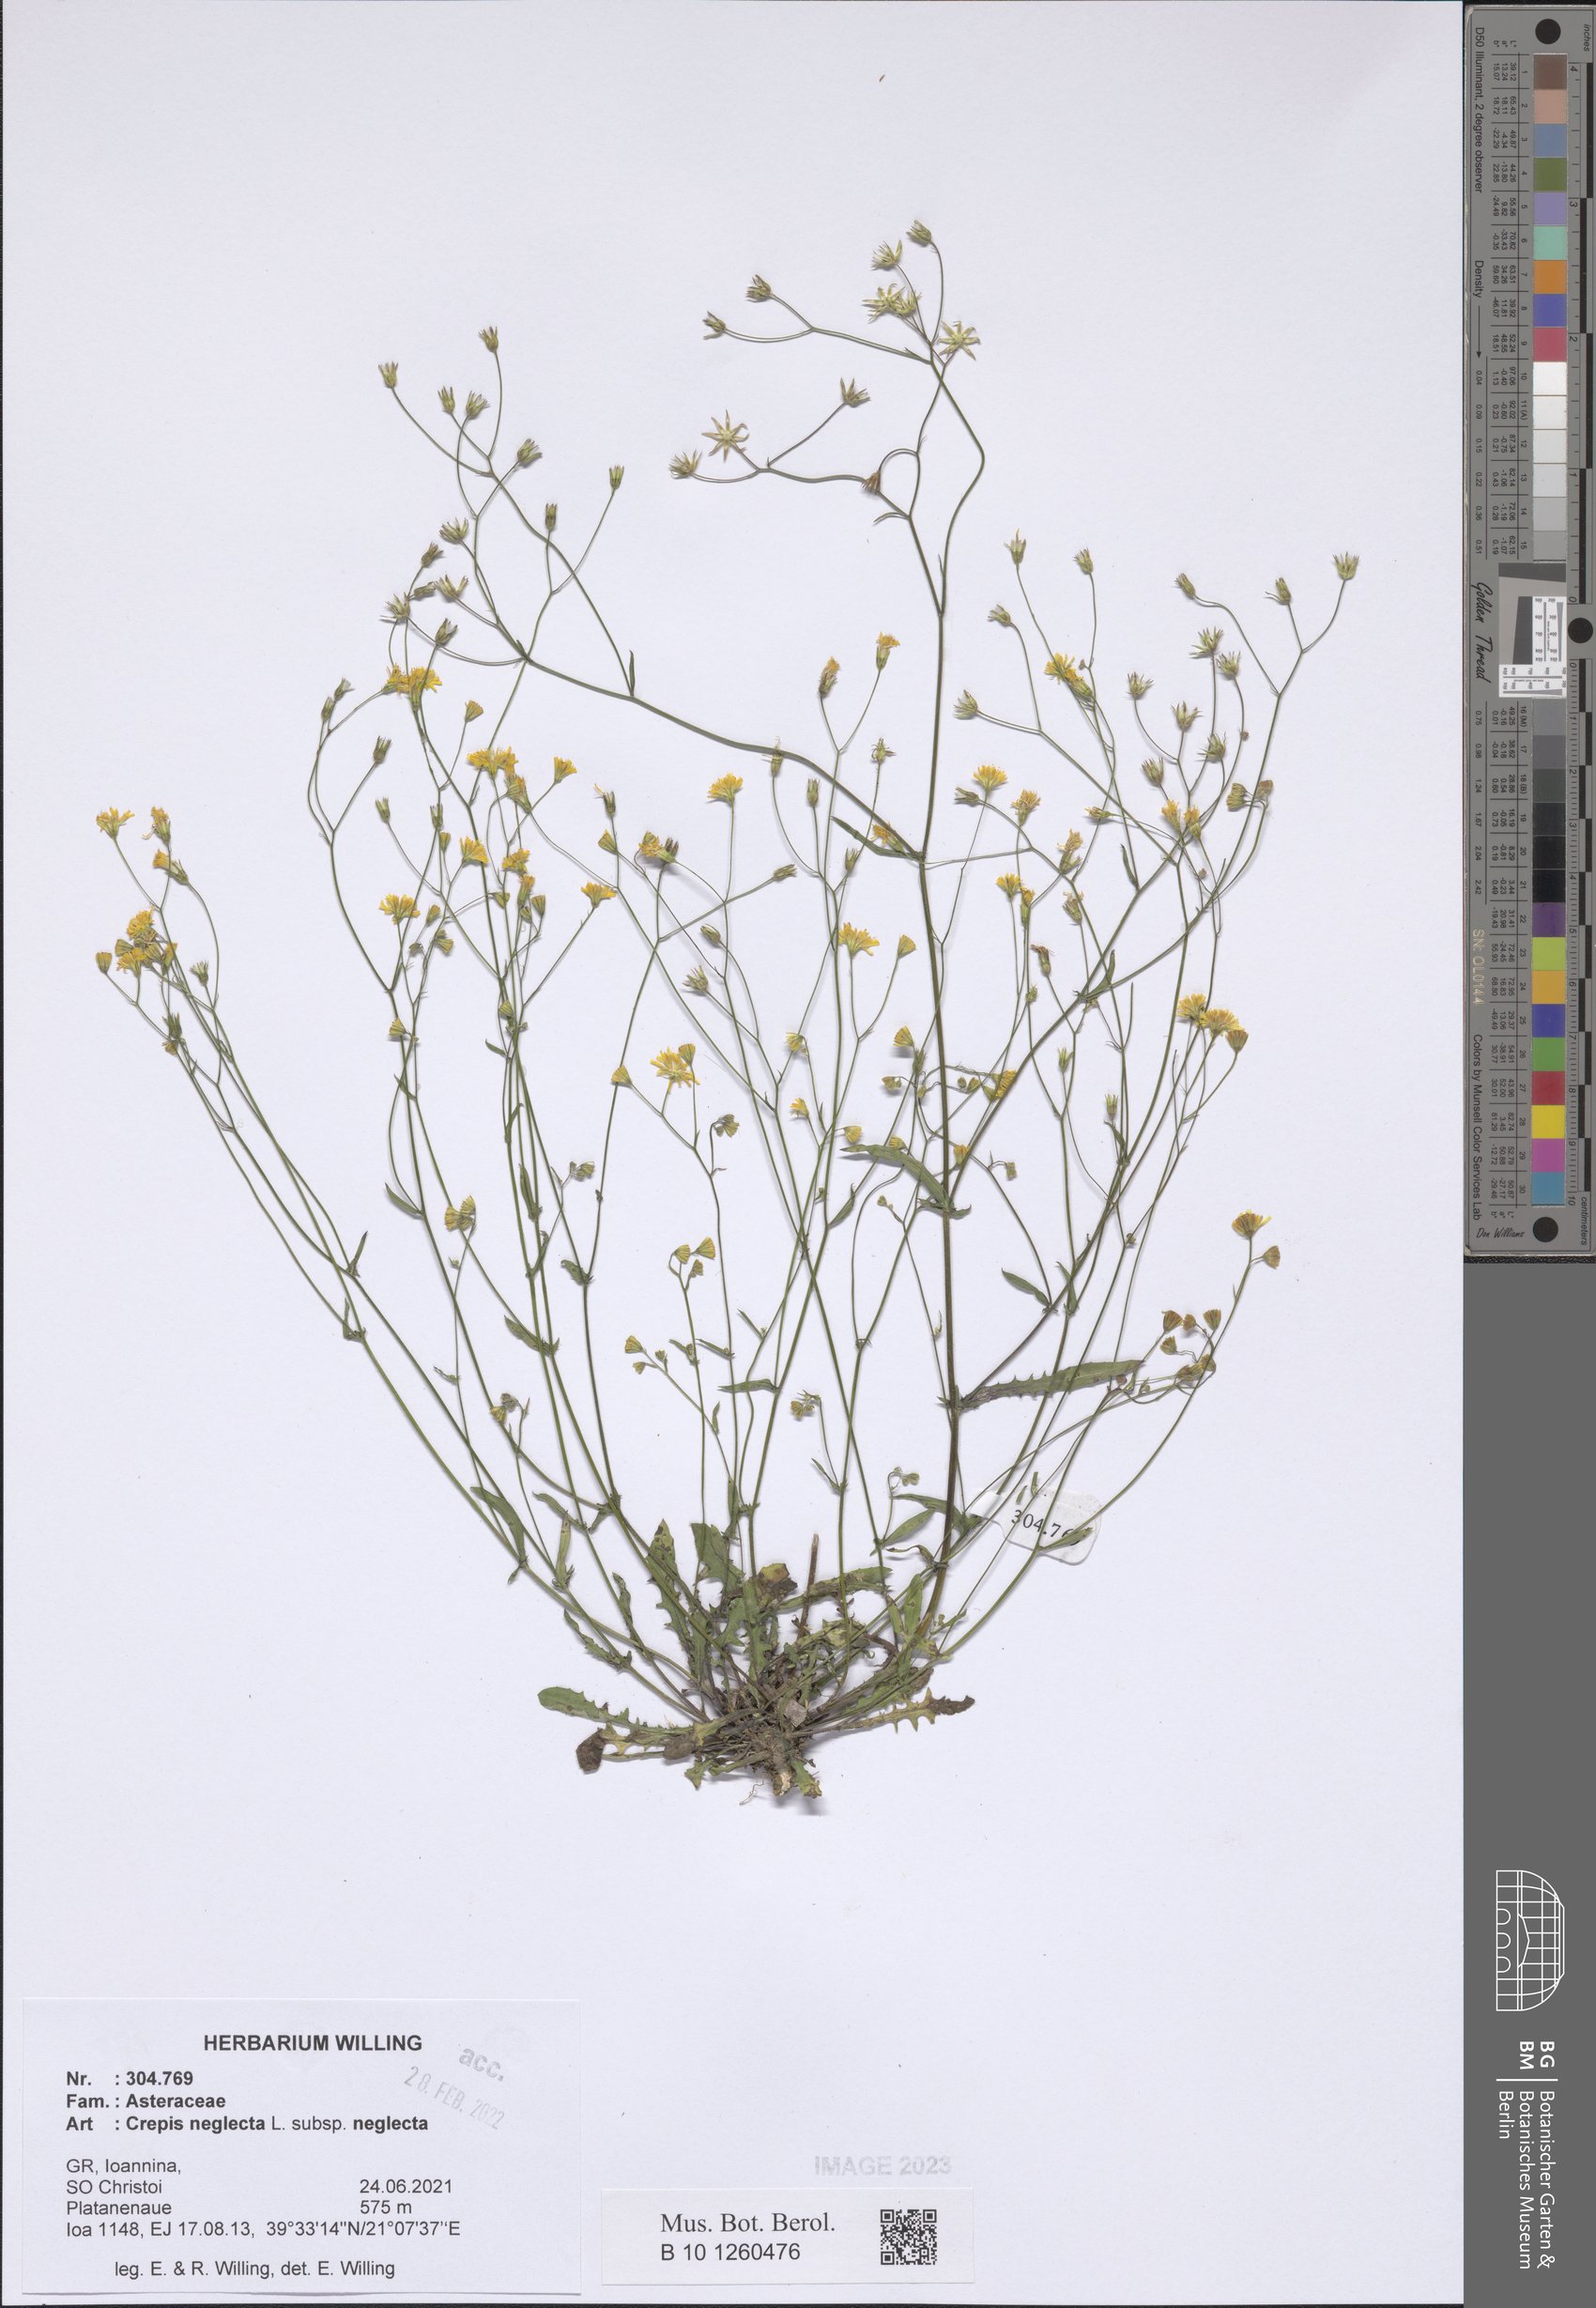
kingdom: Plantae
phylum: Tracheophyta
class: Magnoliopsida
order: Asterales
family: Asteraceae
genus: Crepis
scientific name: Crepis neglecta
